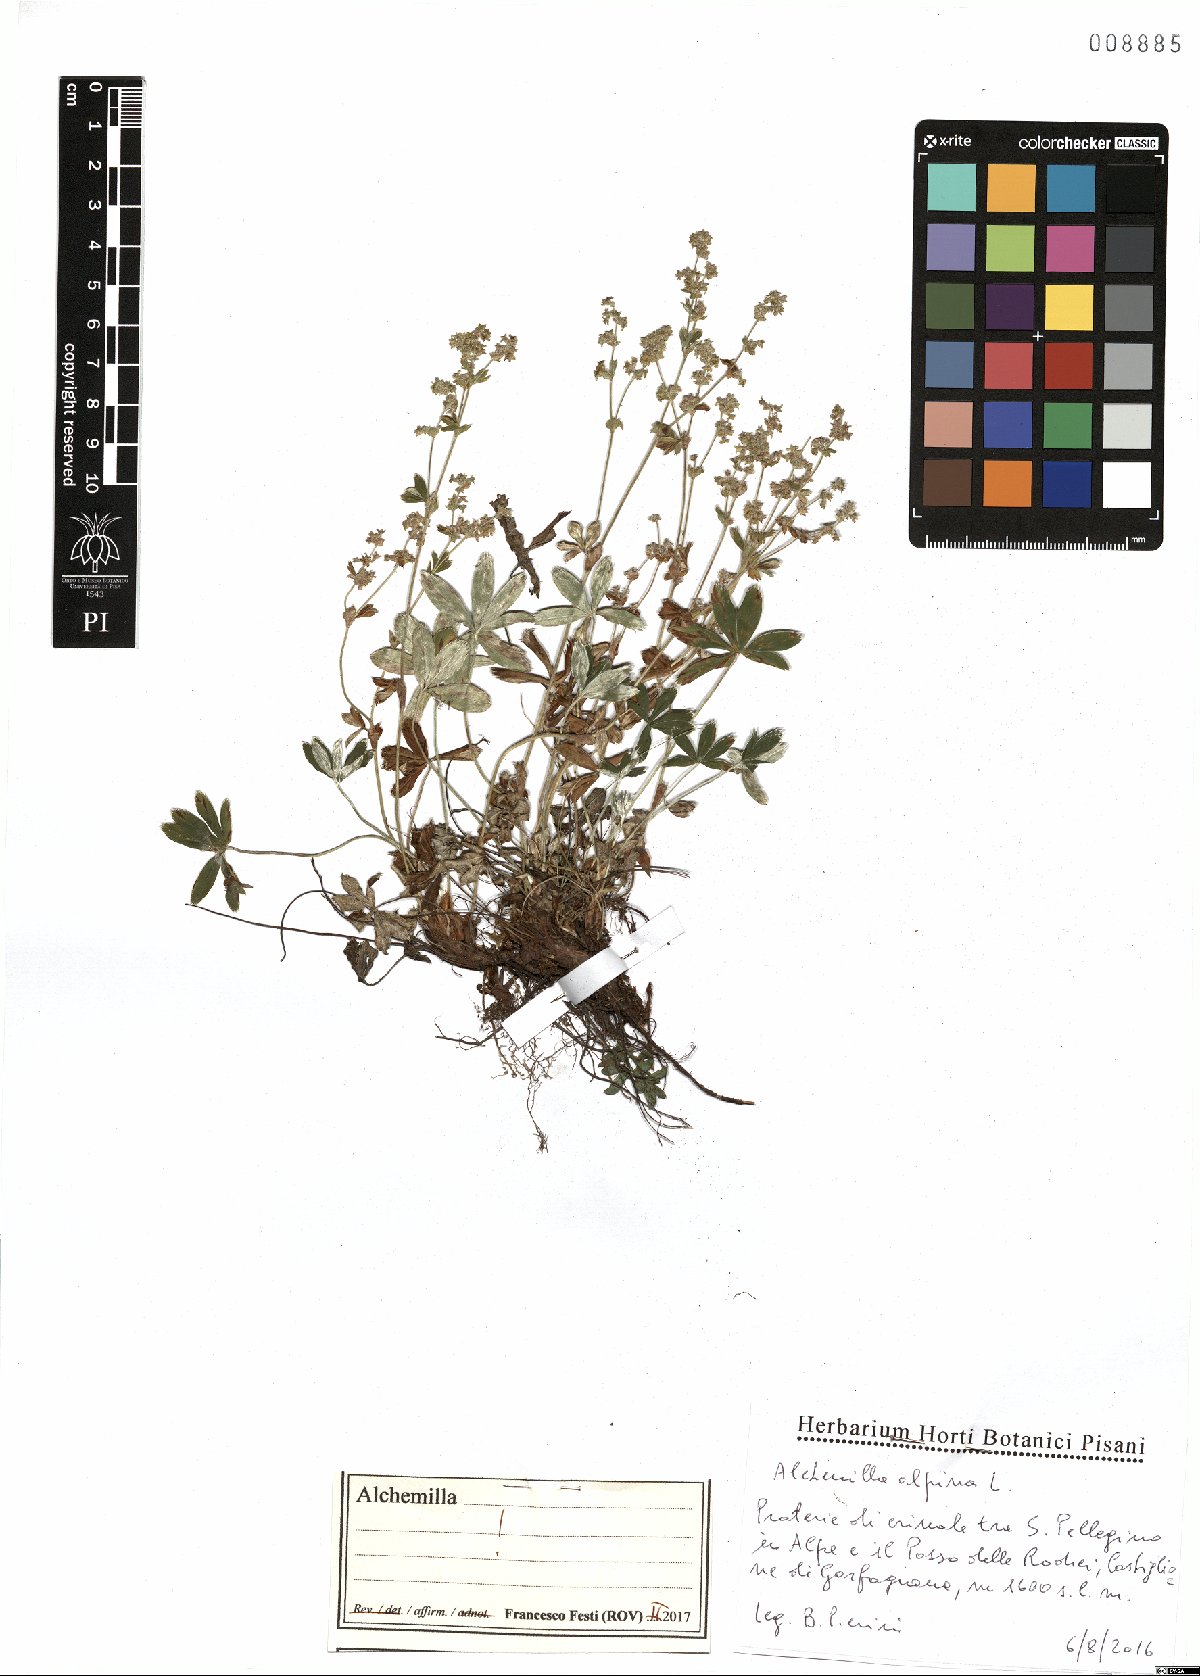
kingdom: Plantae
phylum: Tracheophyta
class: Magnoliopsida
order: Rosales
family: Rosaceae
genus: Alchemilla
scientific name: Alchemilla alpina
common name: Alpine lady's-mantle
